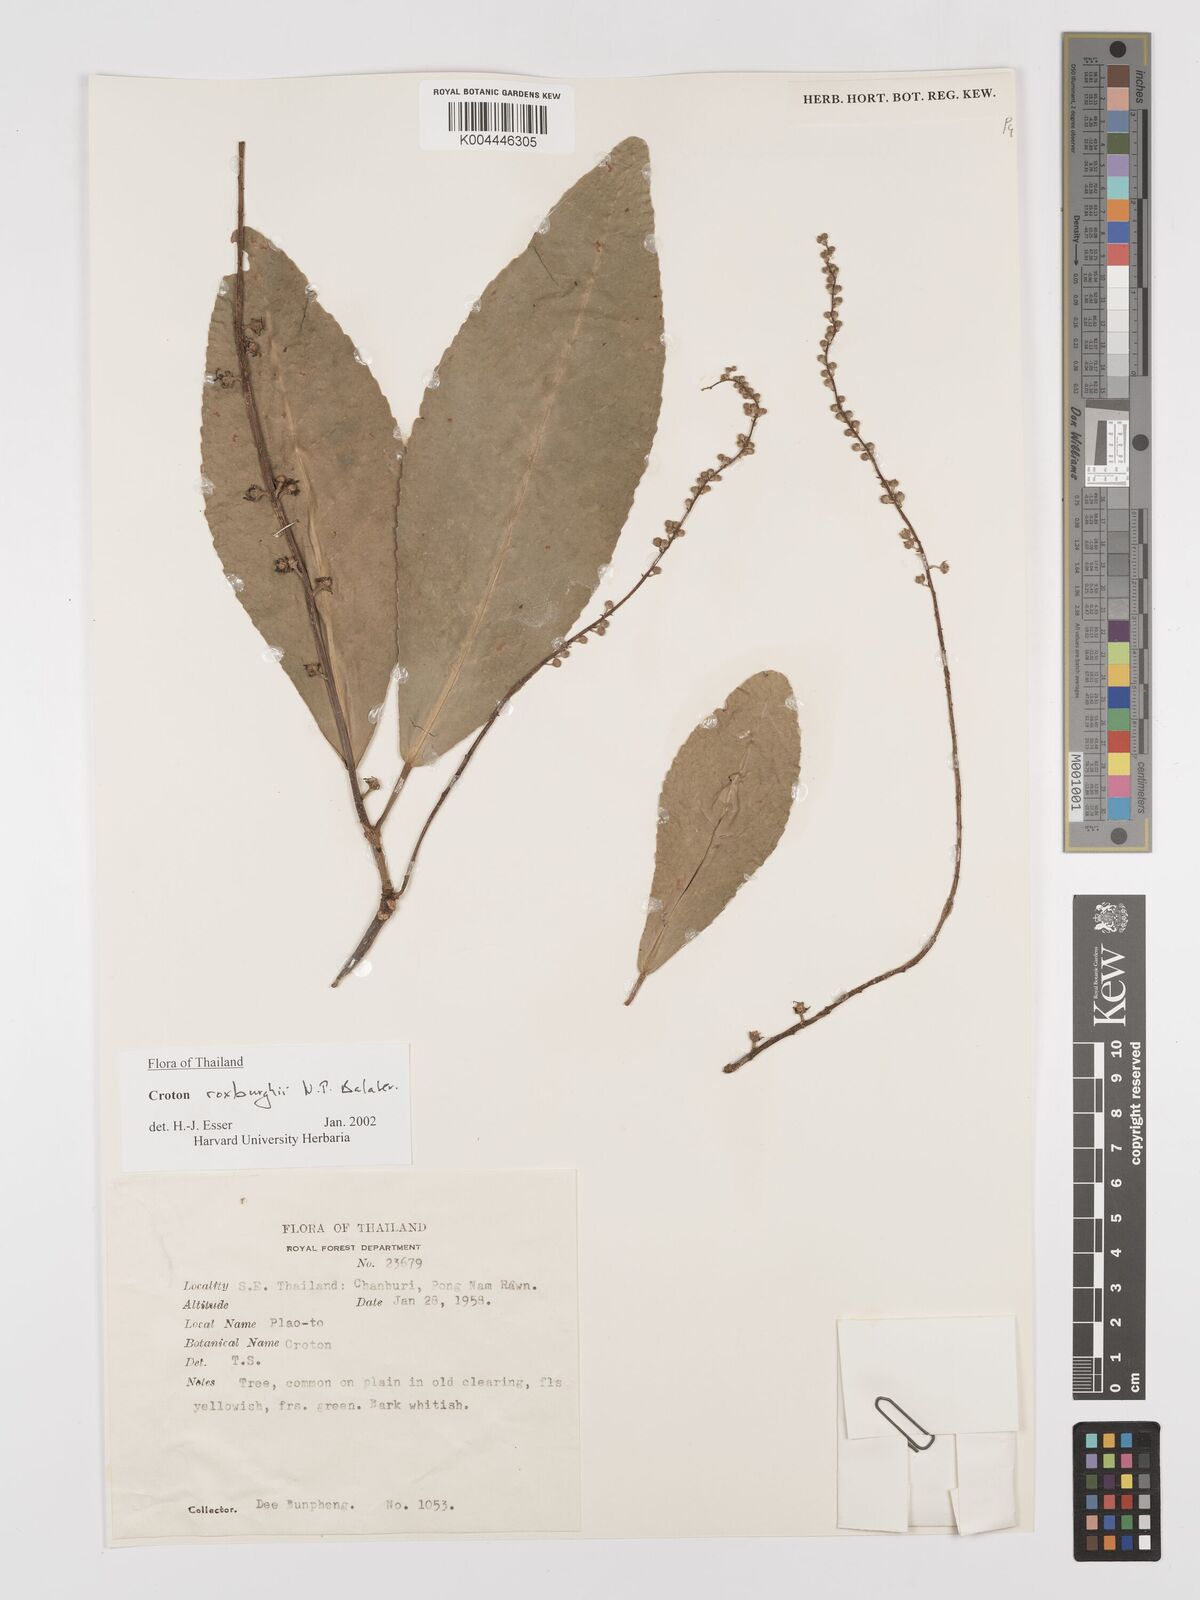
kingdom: Plantae
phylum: Tracheophyta
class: Magnoliopsida
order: Malpighiales
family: Euphorbiaceae
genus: Croton
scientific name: Croton
